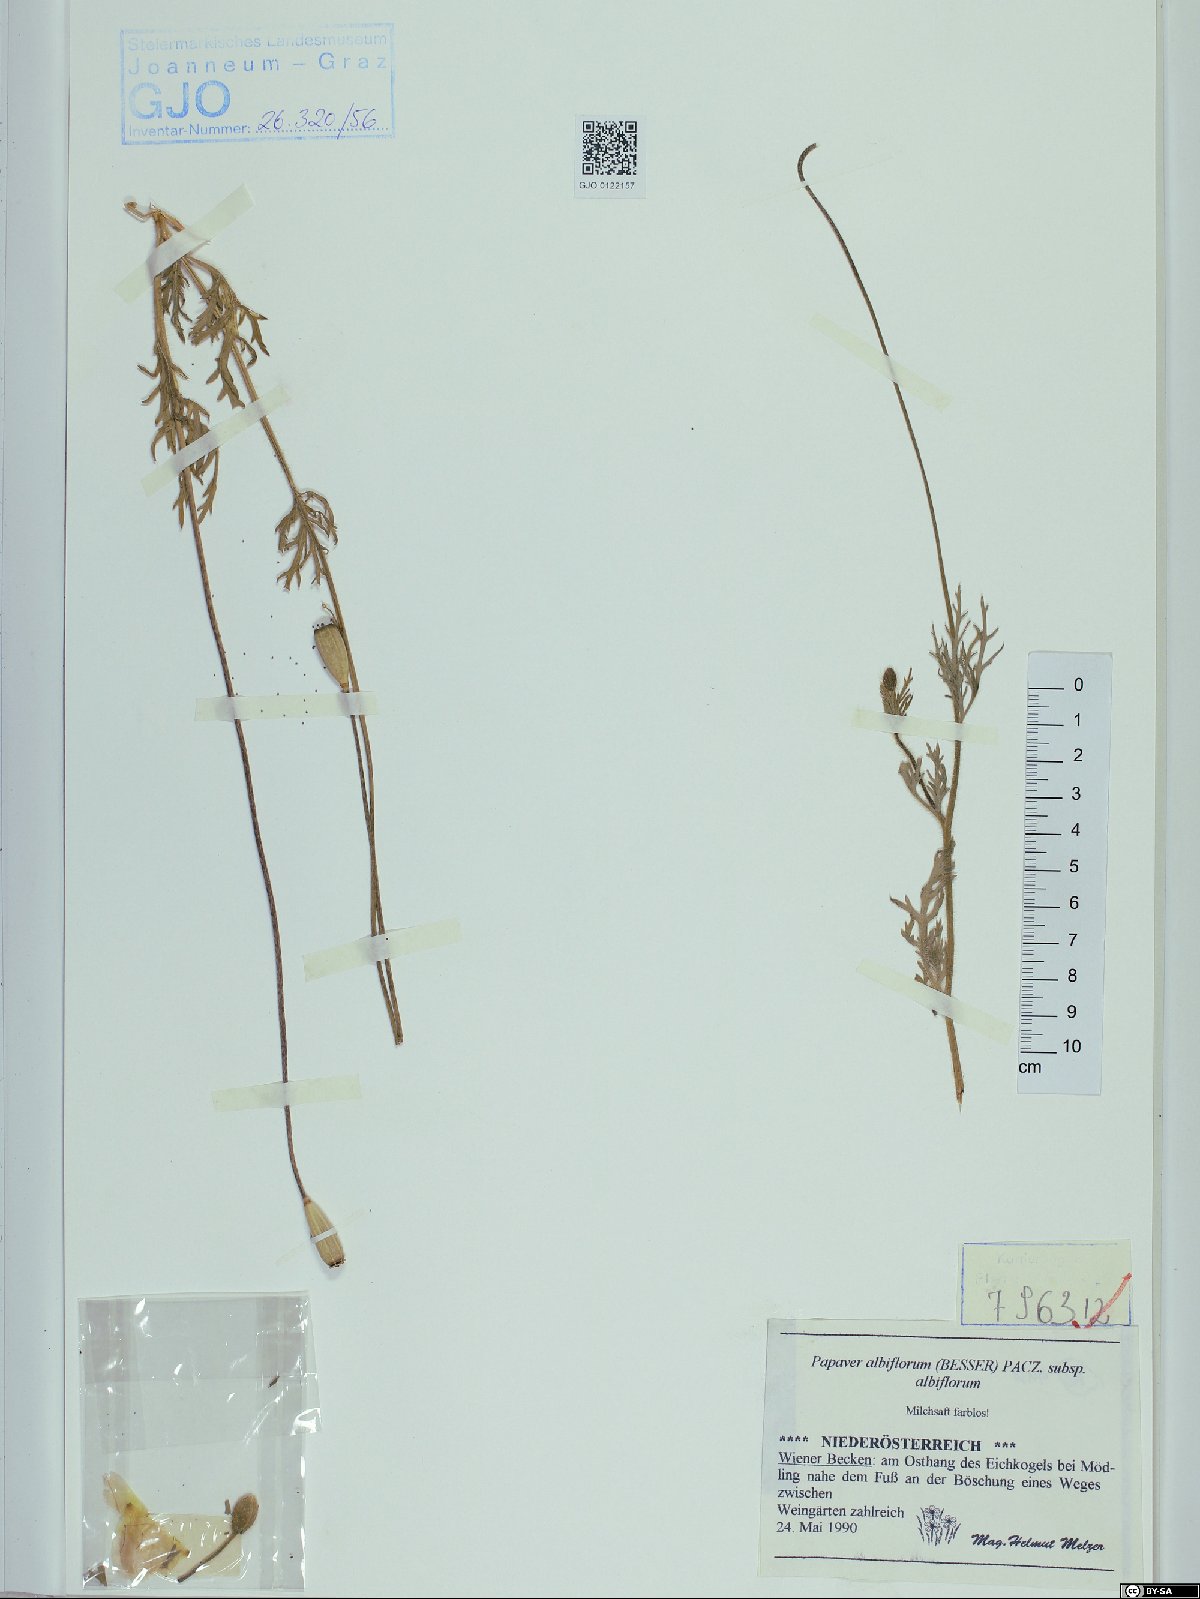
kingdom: Plantae
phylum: Tracheophyta
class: Magnoliopsida
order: Ranunculales
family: Papaveraceae
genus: Papaver
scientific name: Papaver dubium
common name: Long-headed poppy
